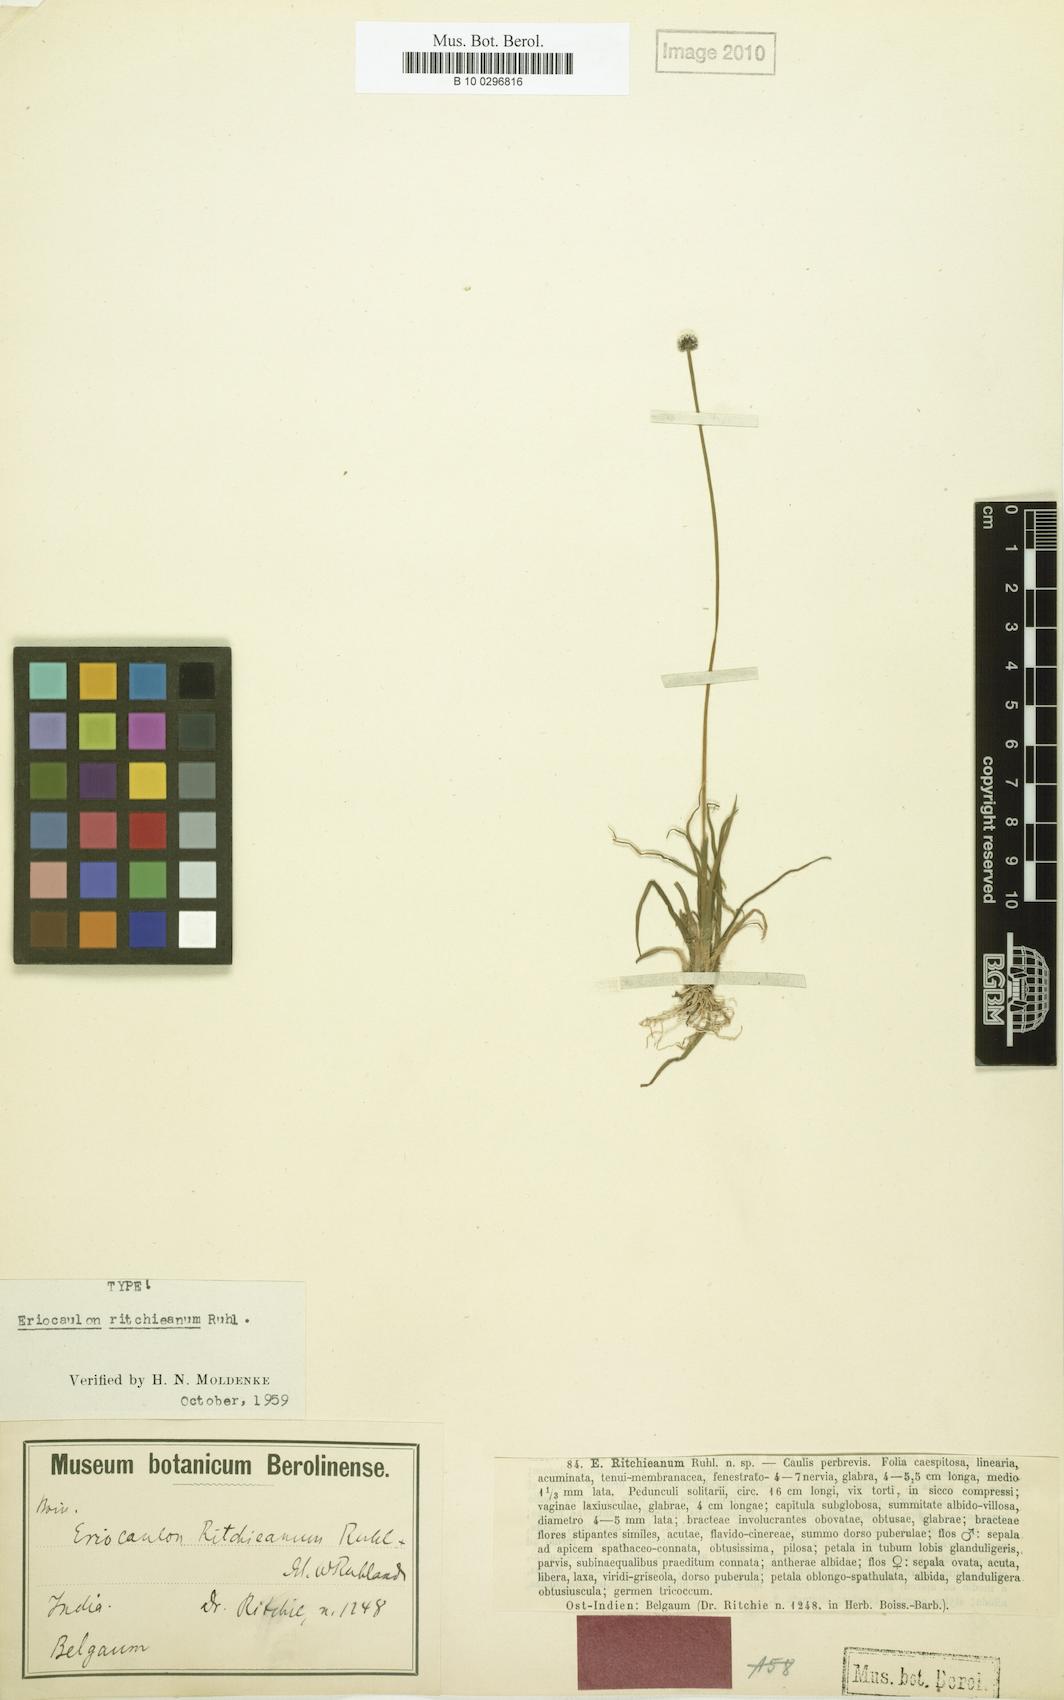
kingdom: Plantae
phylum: Tracheophyta
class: Liliopsida
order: Poales
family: Eriocaulaceae
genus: Eriocaulon
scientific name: Eriocaulon ritchieanum
